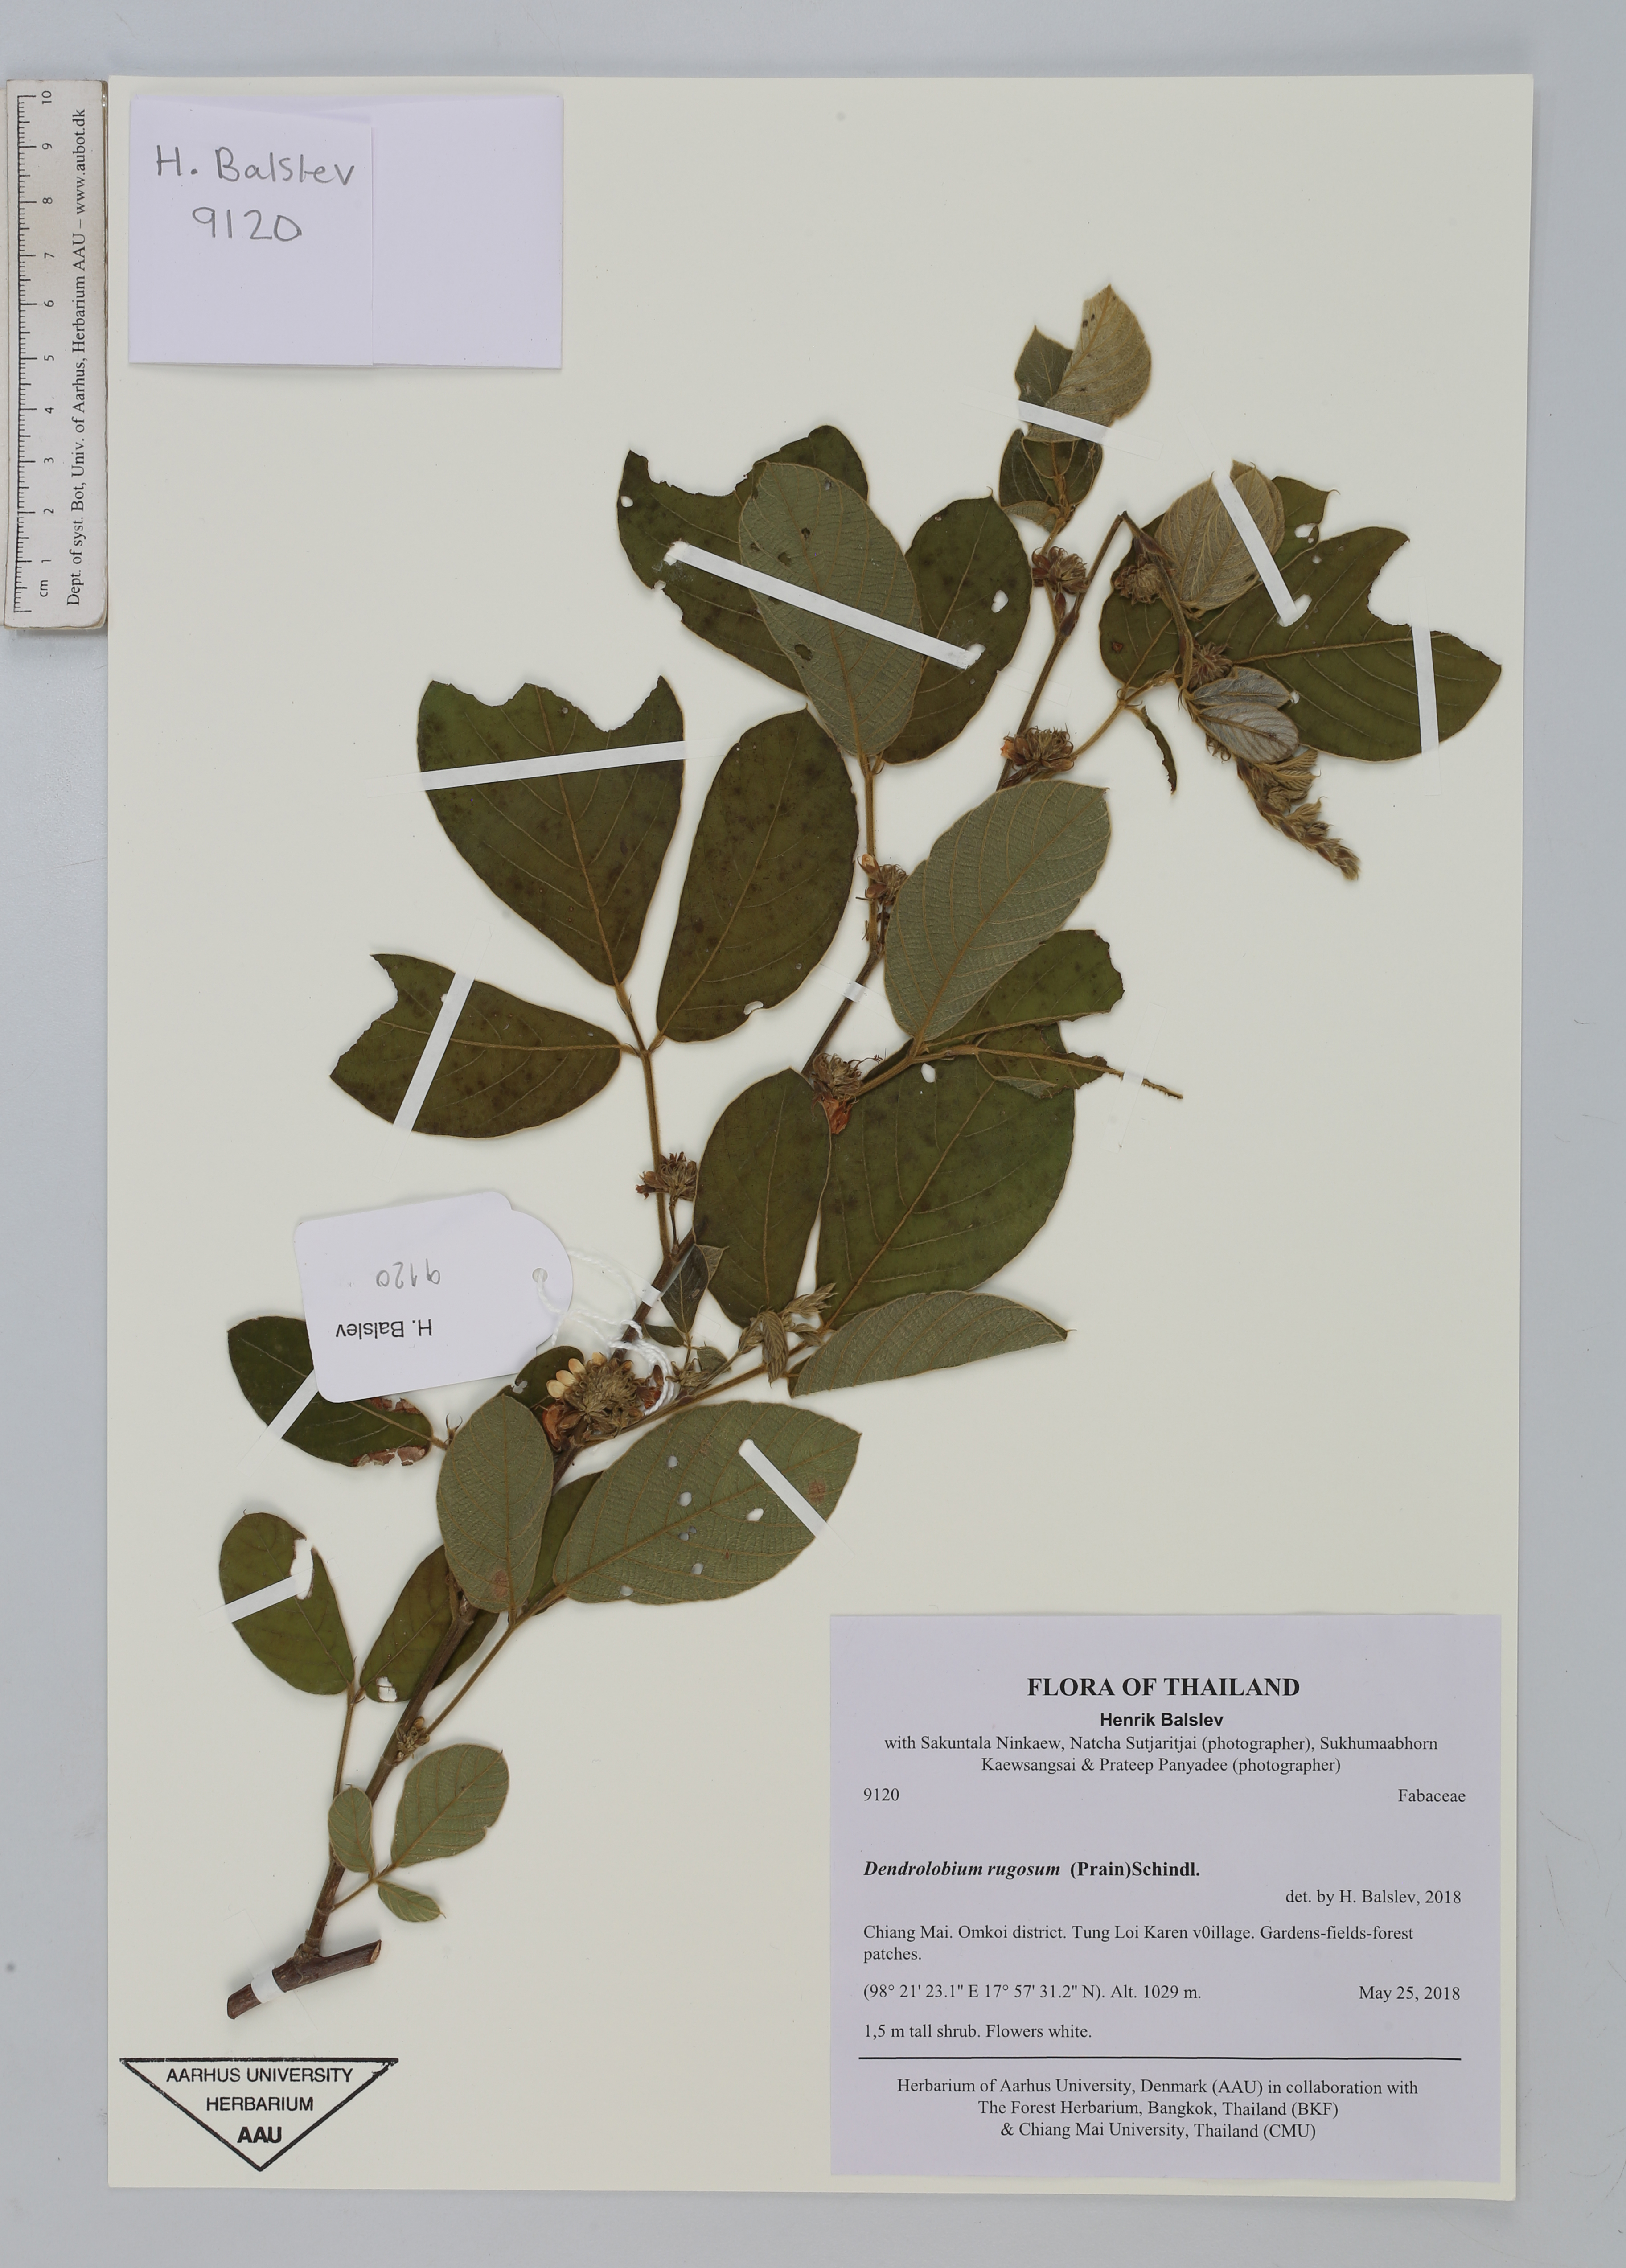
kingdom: Plantae
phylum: Tracheophyta
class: Magnoliopsida
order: Fabales
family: Fabaceae
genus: Dendrolobium
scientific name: Dendrolobium rugosum
